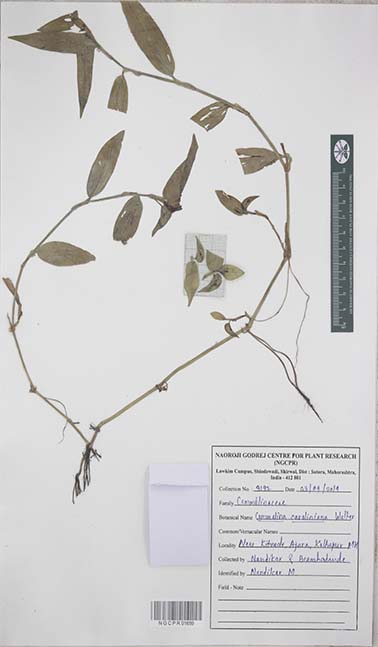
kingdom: Plantae
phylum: Tracheophyta
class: Liliopsida
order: Commelinales
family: Commelinaceae
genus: Commelina
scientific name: Commelina caroliniana
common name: Carolina dayflower
